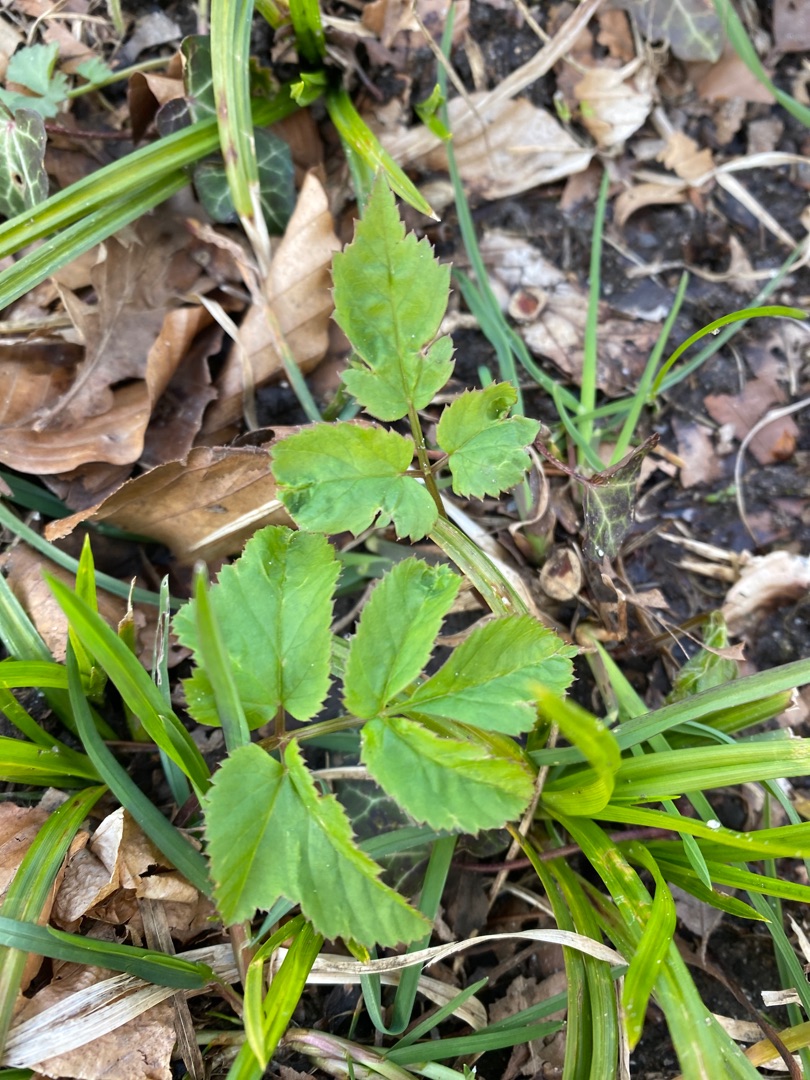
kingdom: Plantae
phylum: Tracheophyta
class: Magnoliopsida
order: Apiales
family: Apiaceae
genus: Aegopodium
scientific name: Aegopodium podagraria
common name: Skvalderkål
